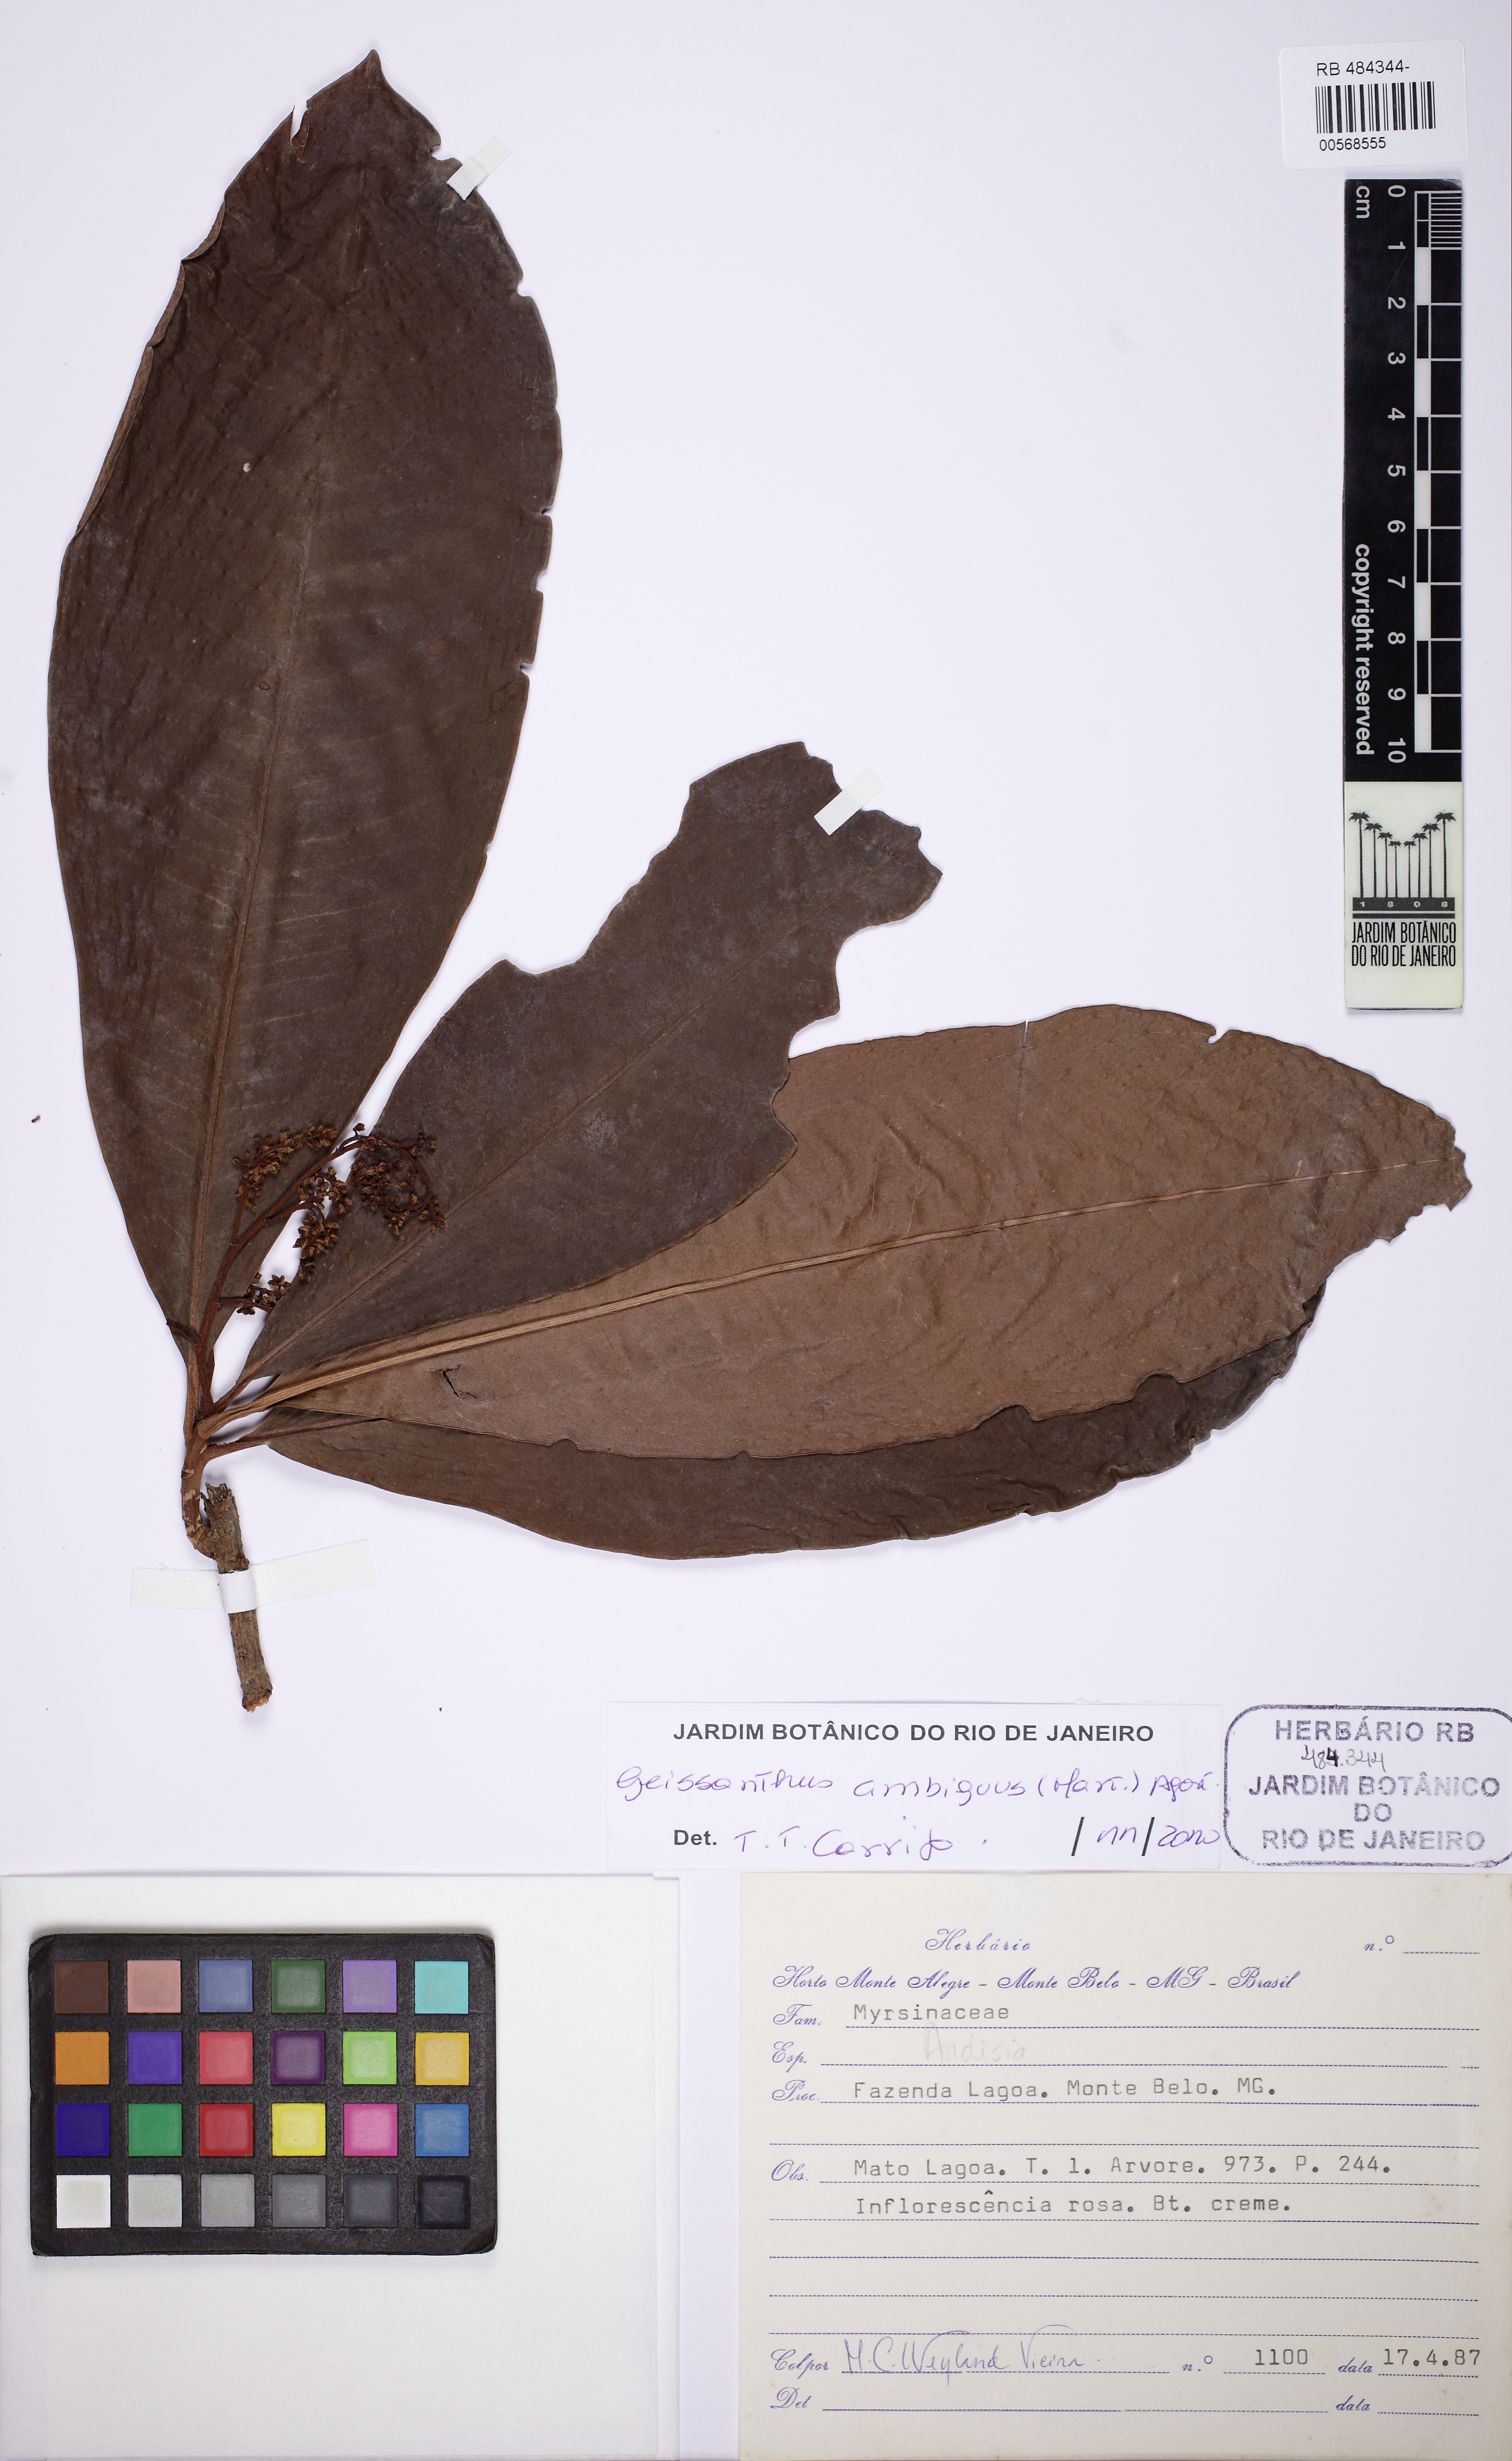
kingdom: Plantae
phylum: Tracheophyta
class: Magnoliopsida
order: Ericales
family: Primulaceae
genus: Geissanthus
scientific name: Geissanthus ambigua
